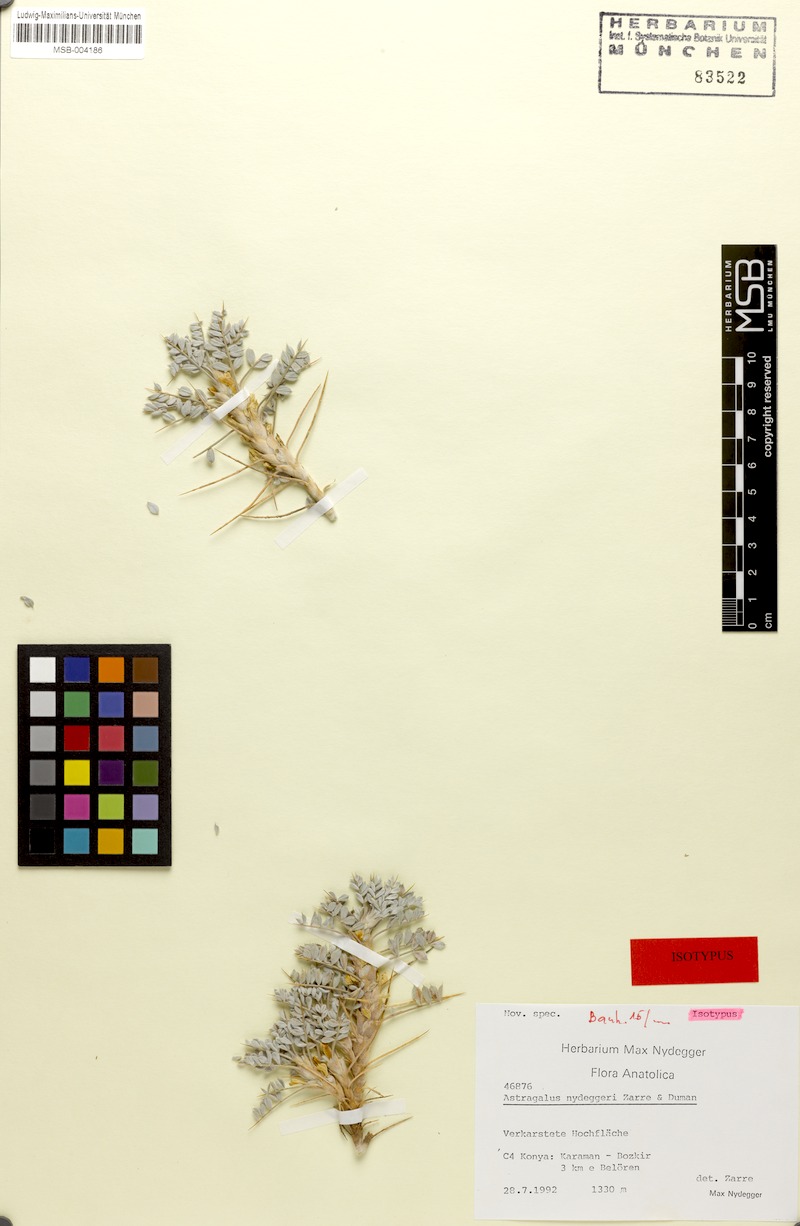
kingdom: Plantae
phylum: Tracheophyta
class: Magnoliopsida
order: Fabales
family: Fabaceae
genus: Astragalus
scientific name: Astragalus nydeggeri
